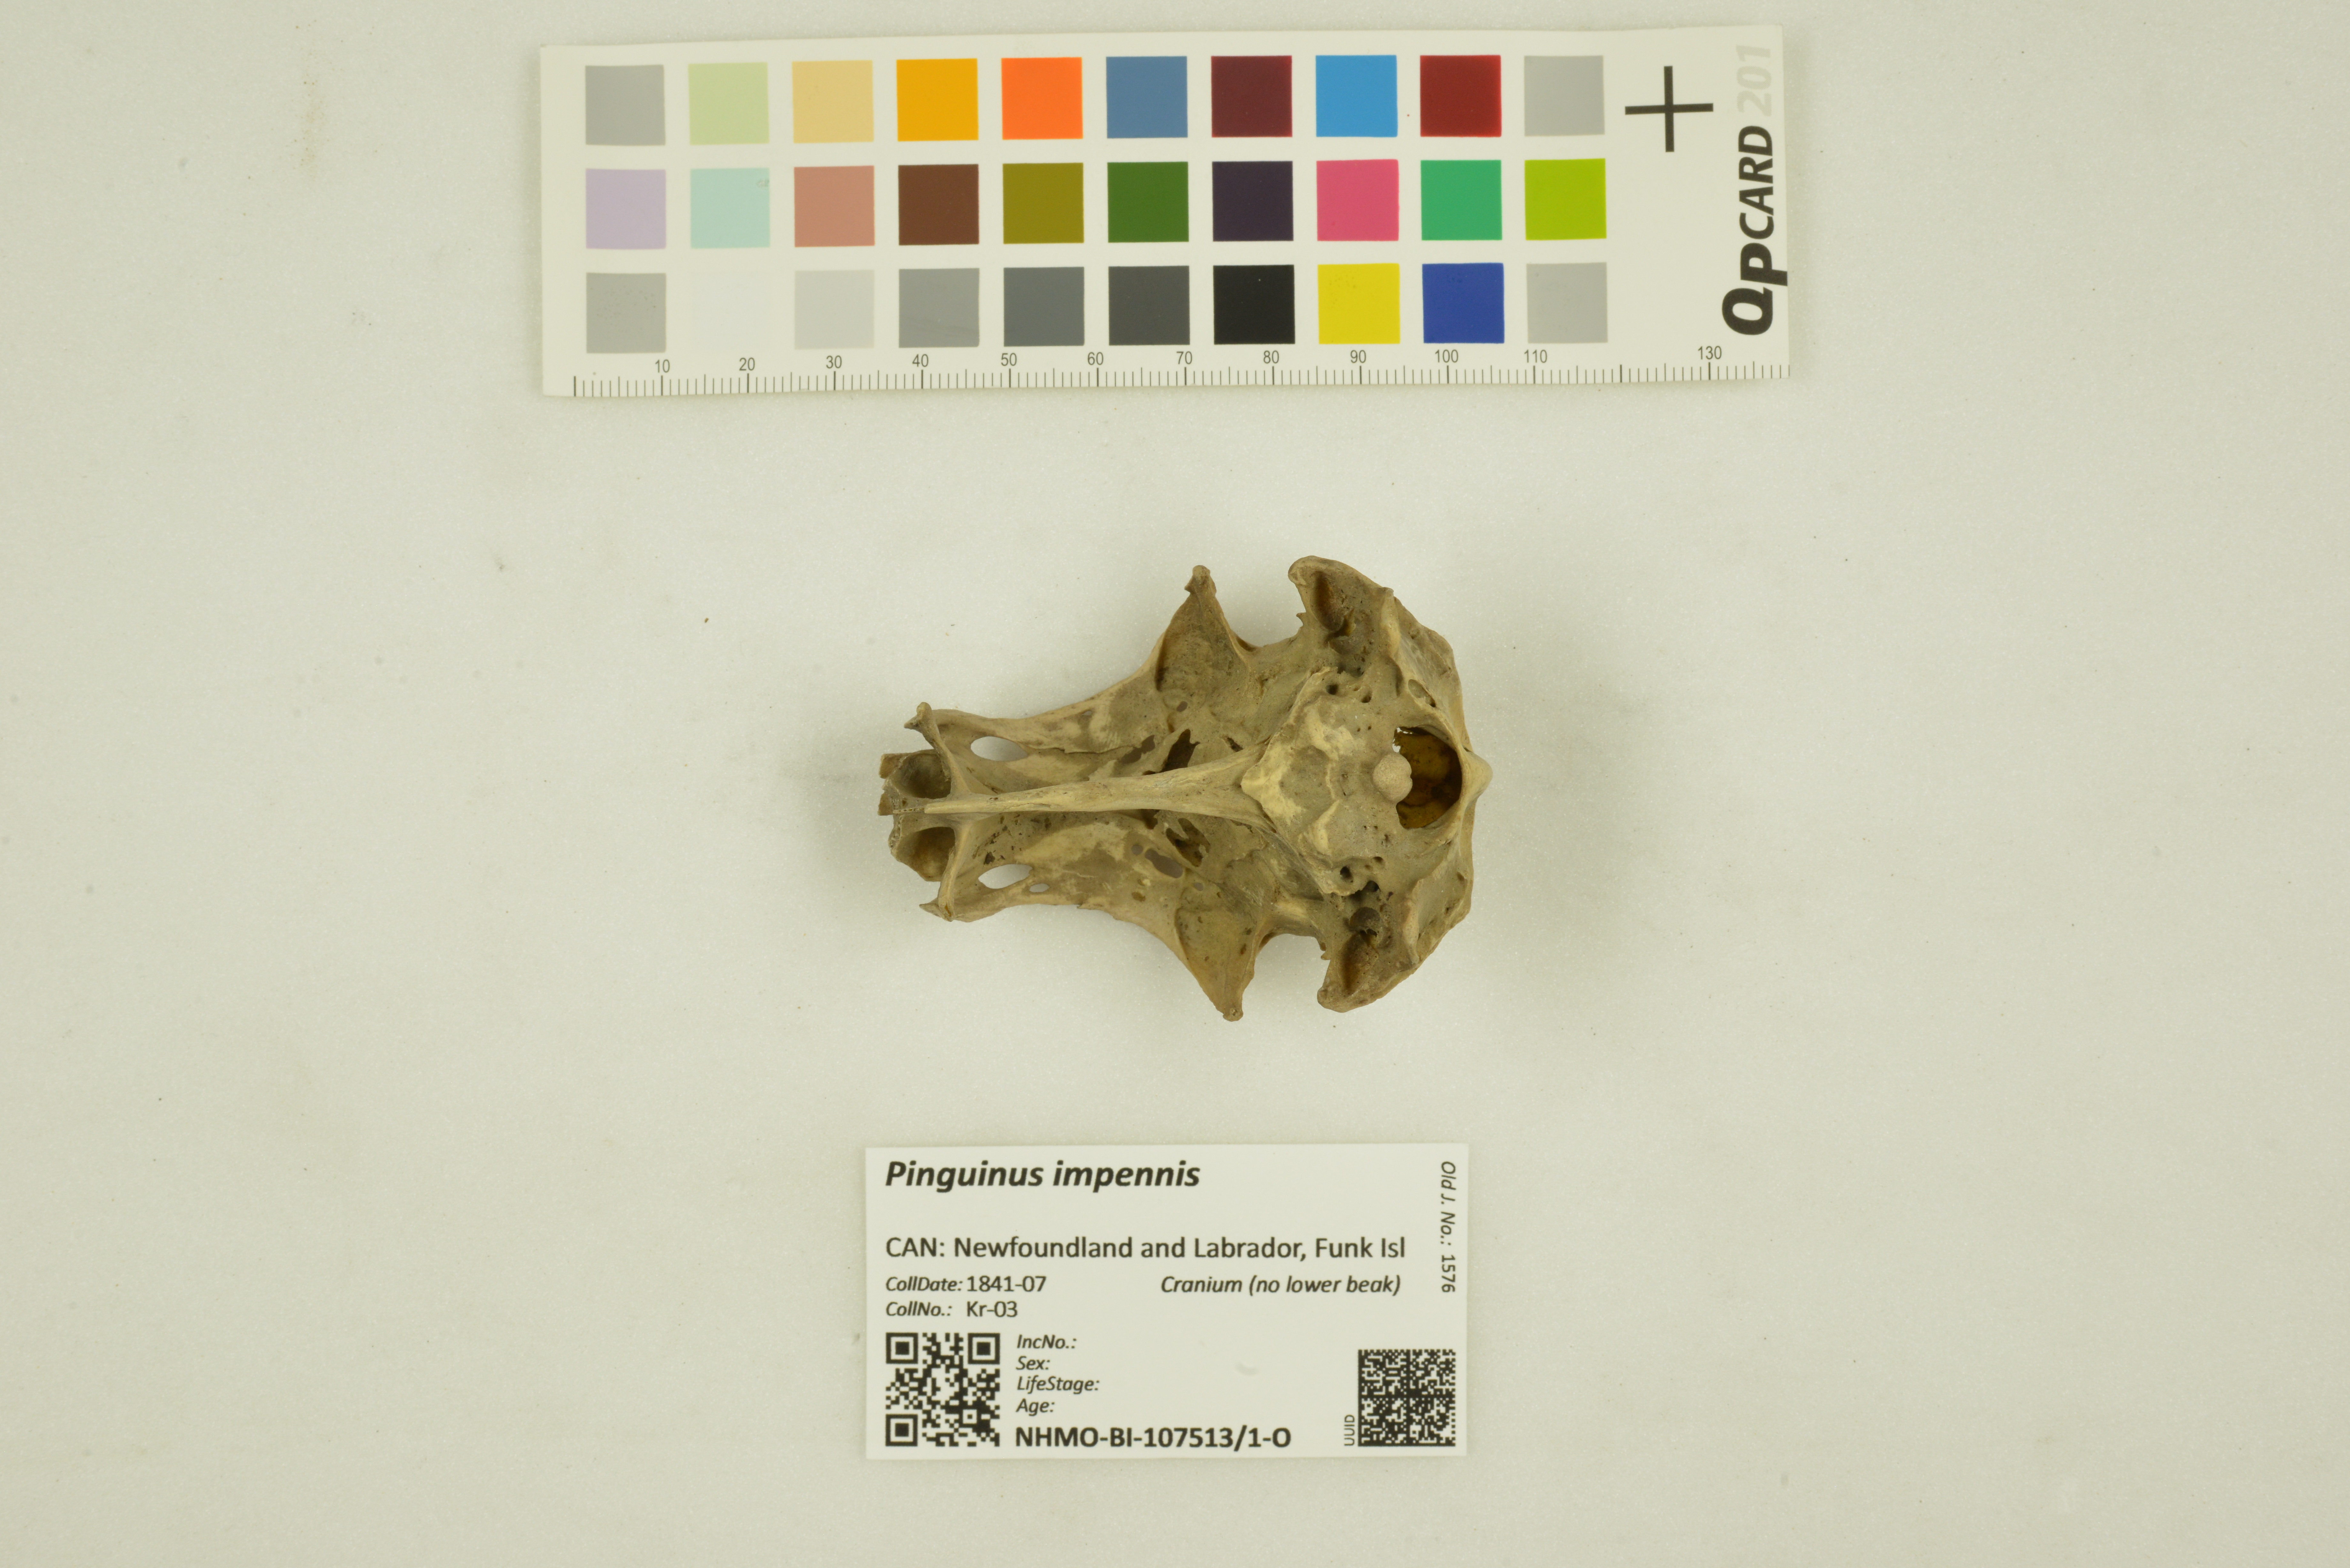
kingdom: Animalia
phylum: Chordata
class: Aves
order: Charadriiformes
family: Alcidae
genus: Pinguinus
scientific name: Pinguinus impennis
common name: Great auk
